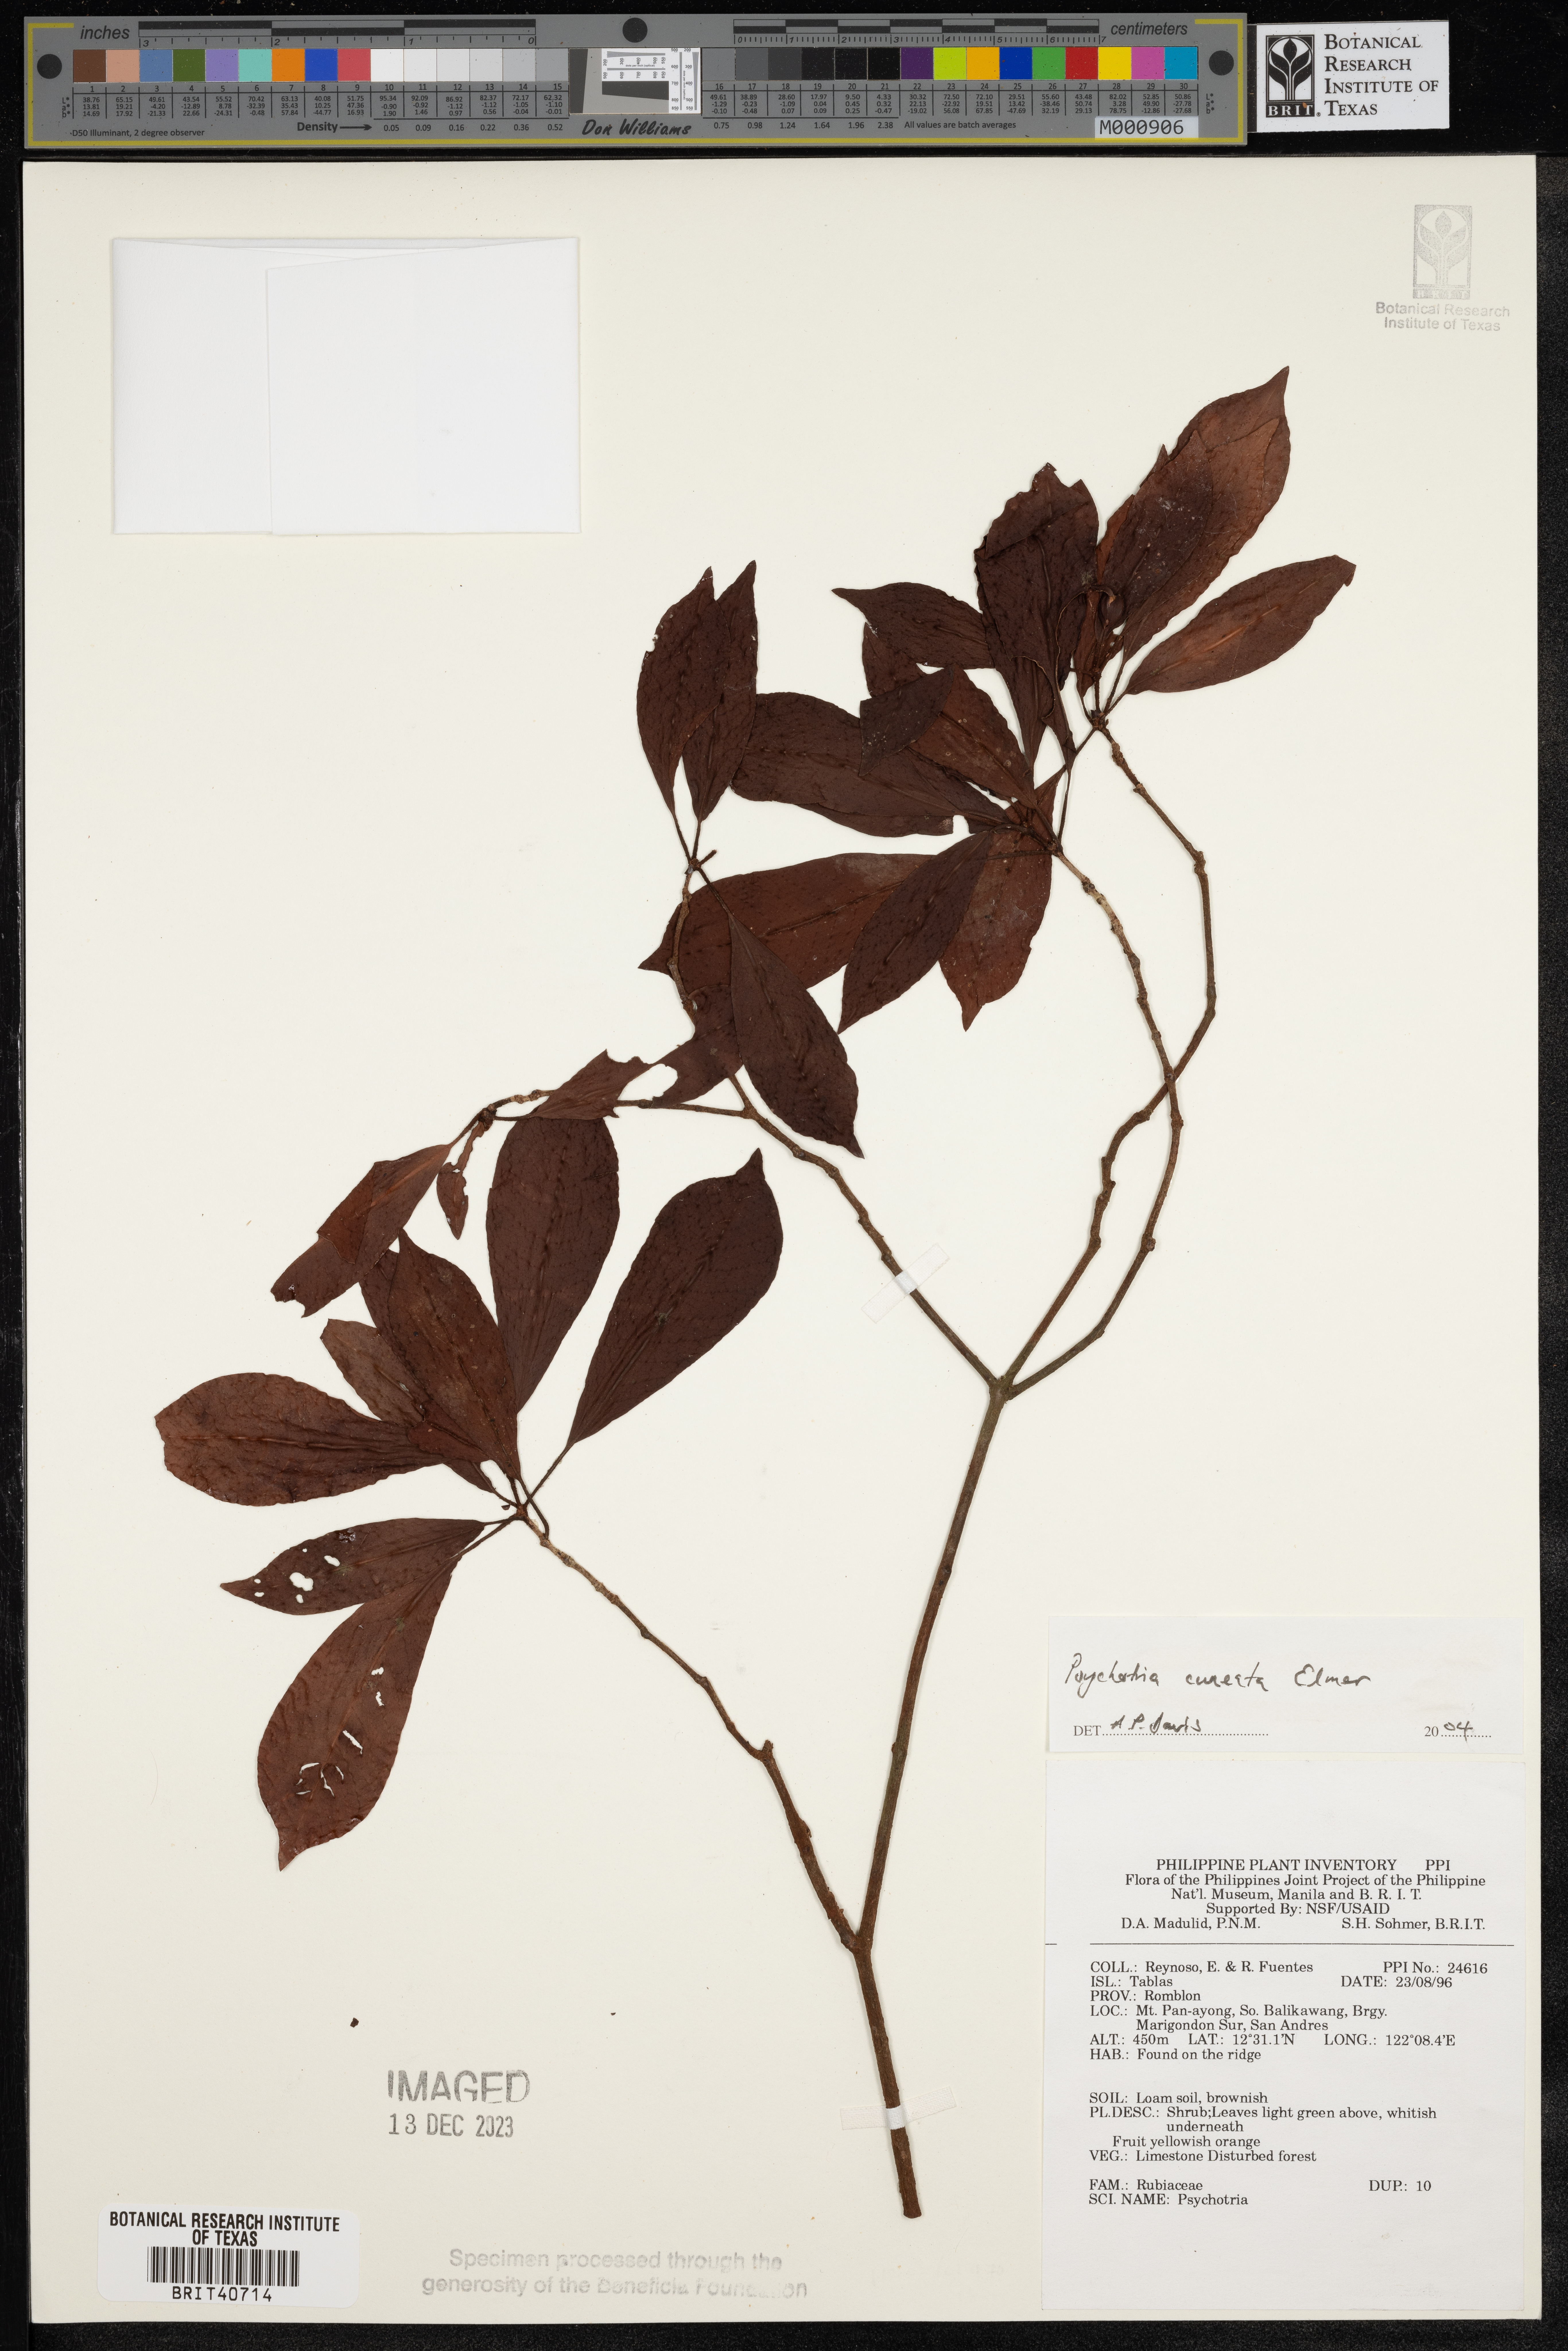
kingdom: Plantae
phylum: Tracheophyta
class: Magnoliopsida
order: Gentianales
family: Rubiaceae
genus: Psychotria
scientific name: Psychotria cuneata
